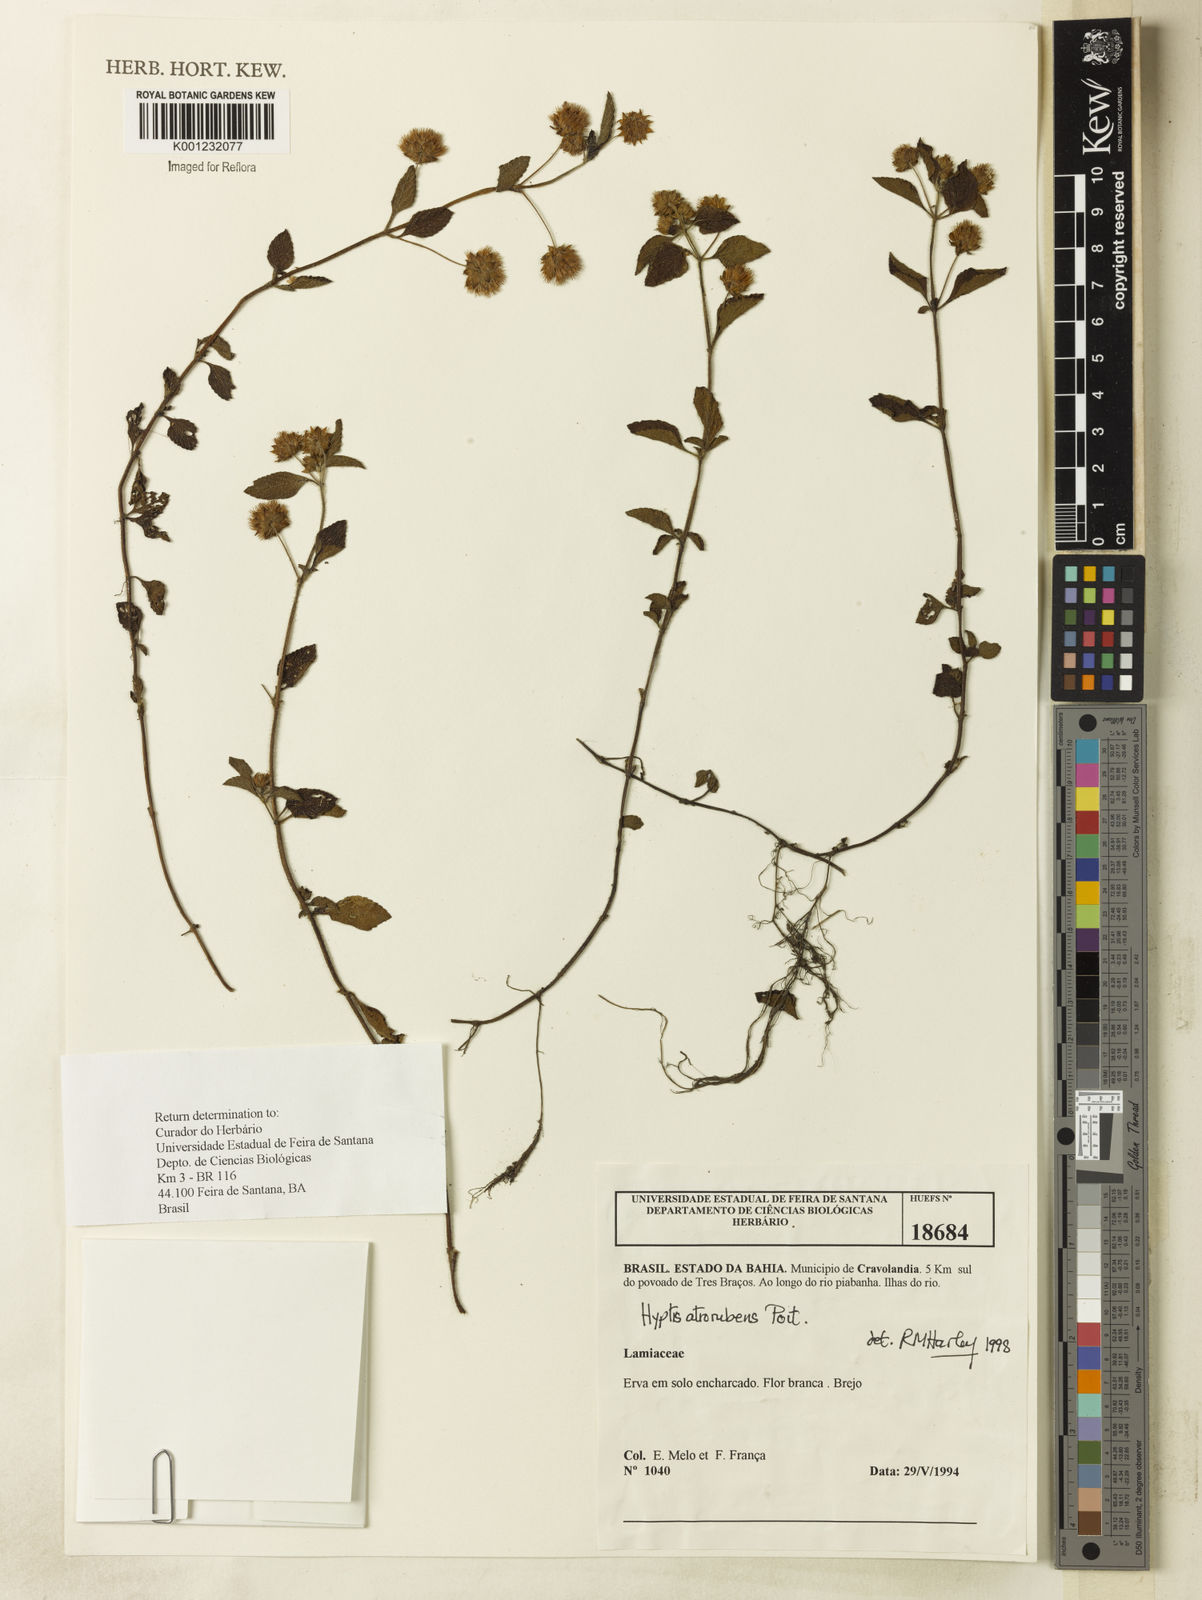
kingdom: Plantae
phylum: Tracheophyta
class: Magnoliopsida
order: Lamiales
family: Lamiaceae
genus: Hyptis
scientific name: Hyptis atrorubens
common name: Lanmant
